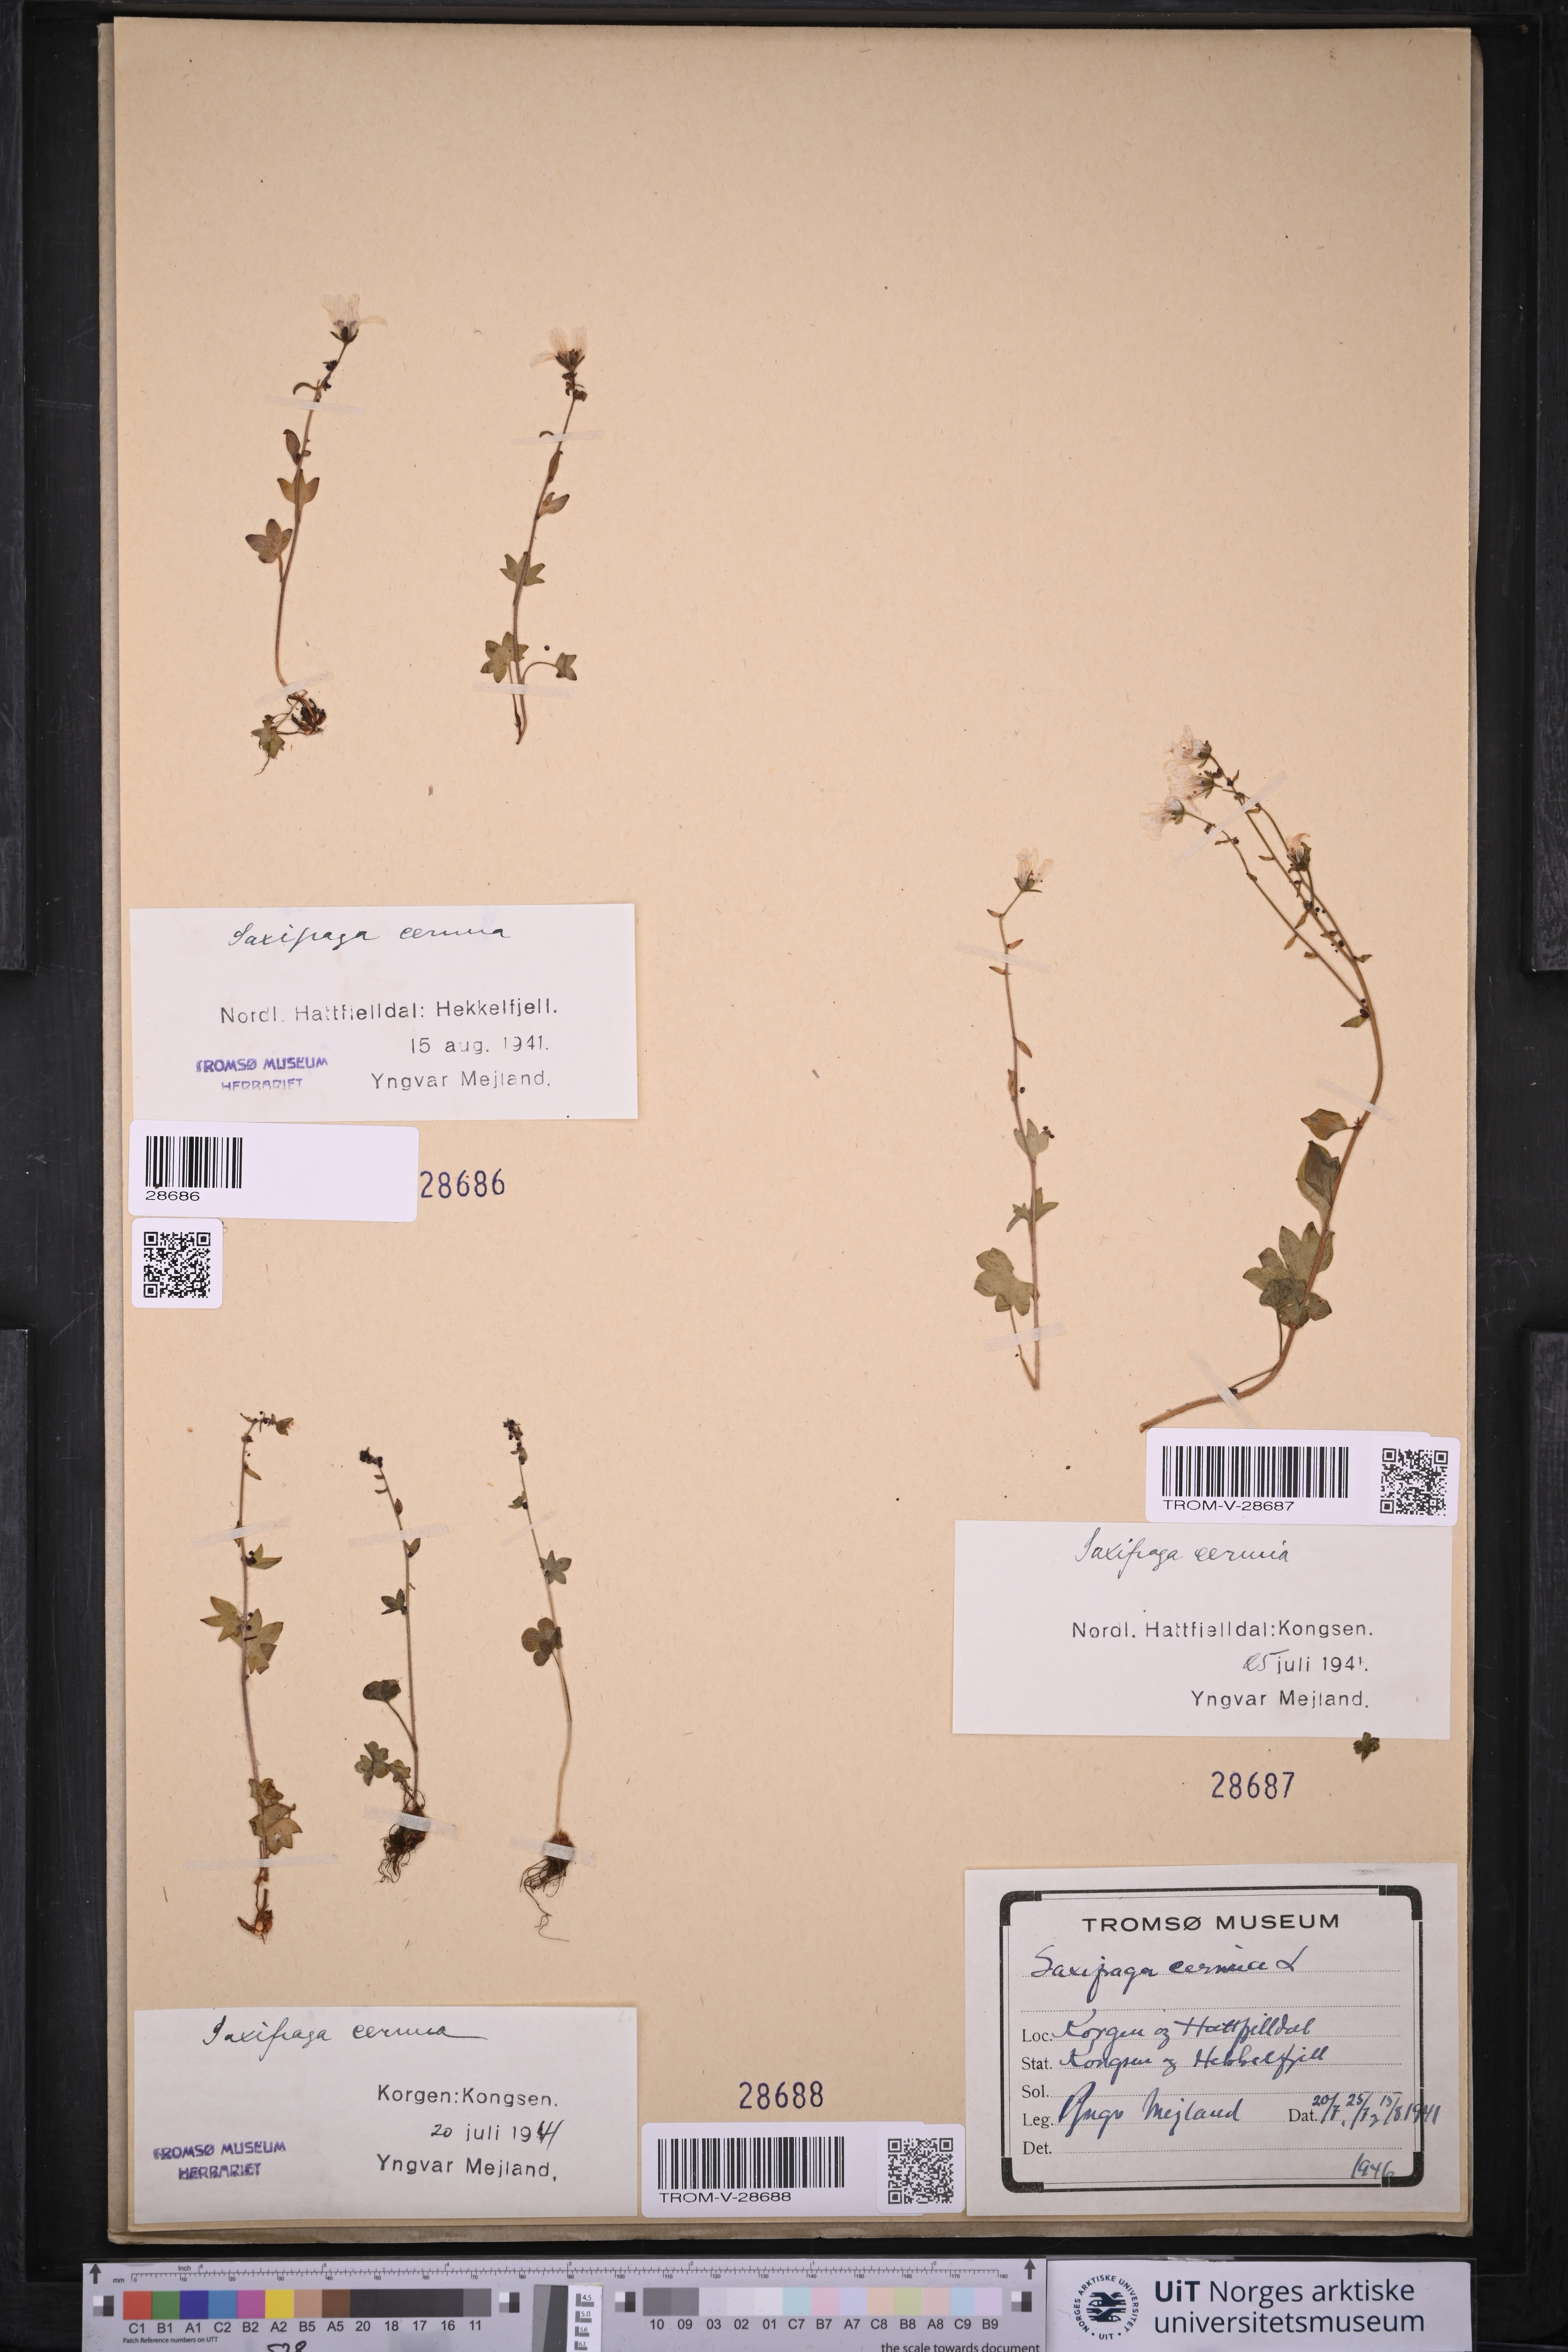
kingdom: Plantae
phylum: Tracheophyta
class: Magnoliopsida
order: Saxifragales
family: Saxifragaceae
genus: Saxifraga
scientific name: Saxifraga cernua
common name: Drooping saxifrage
